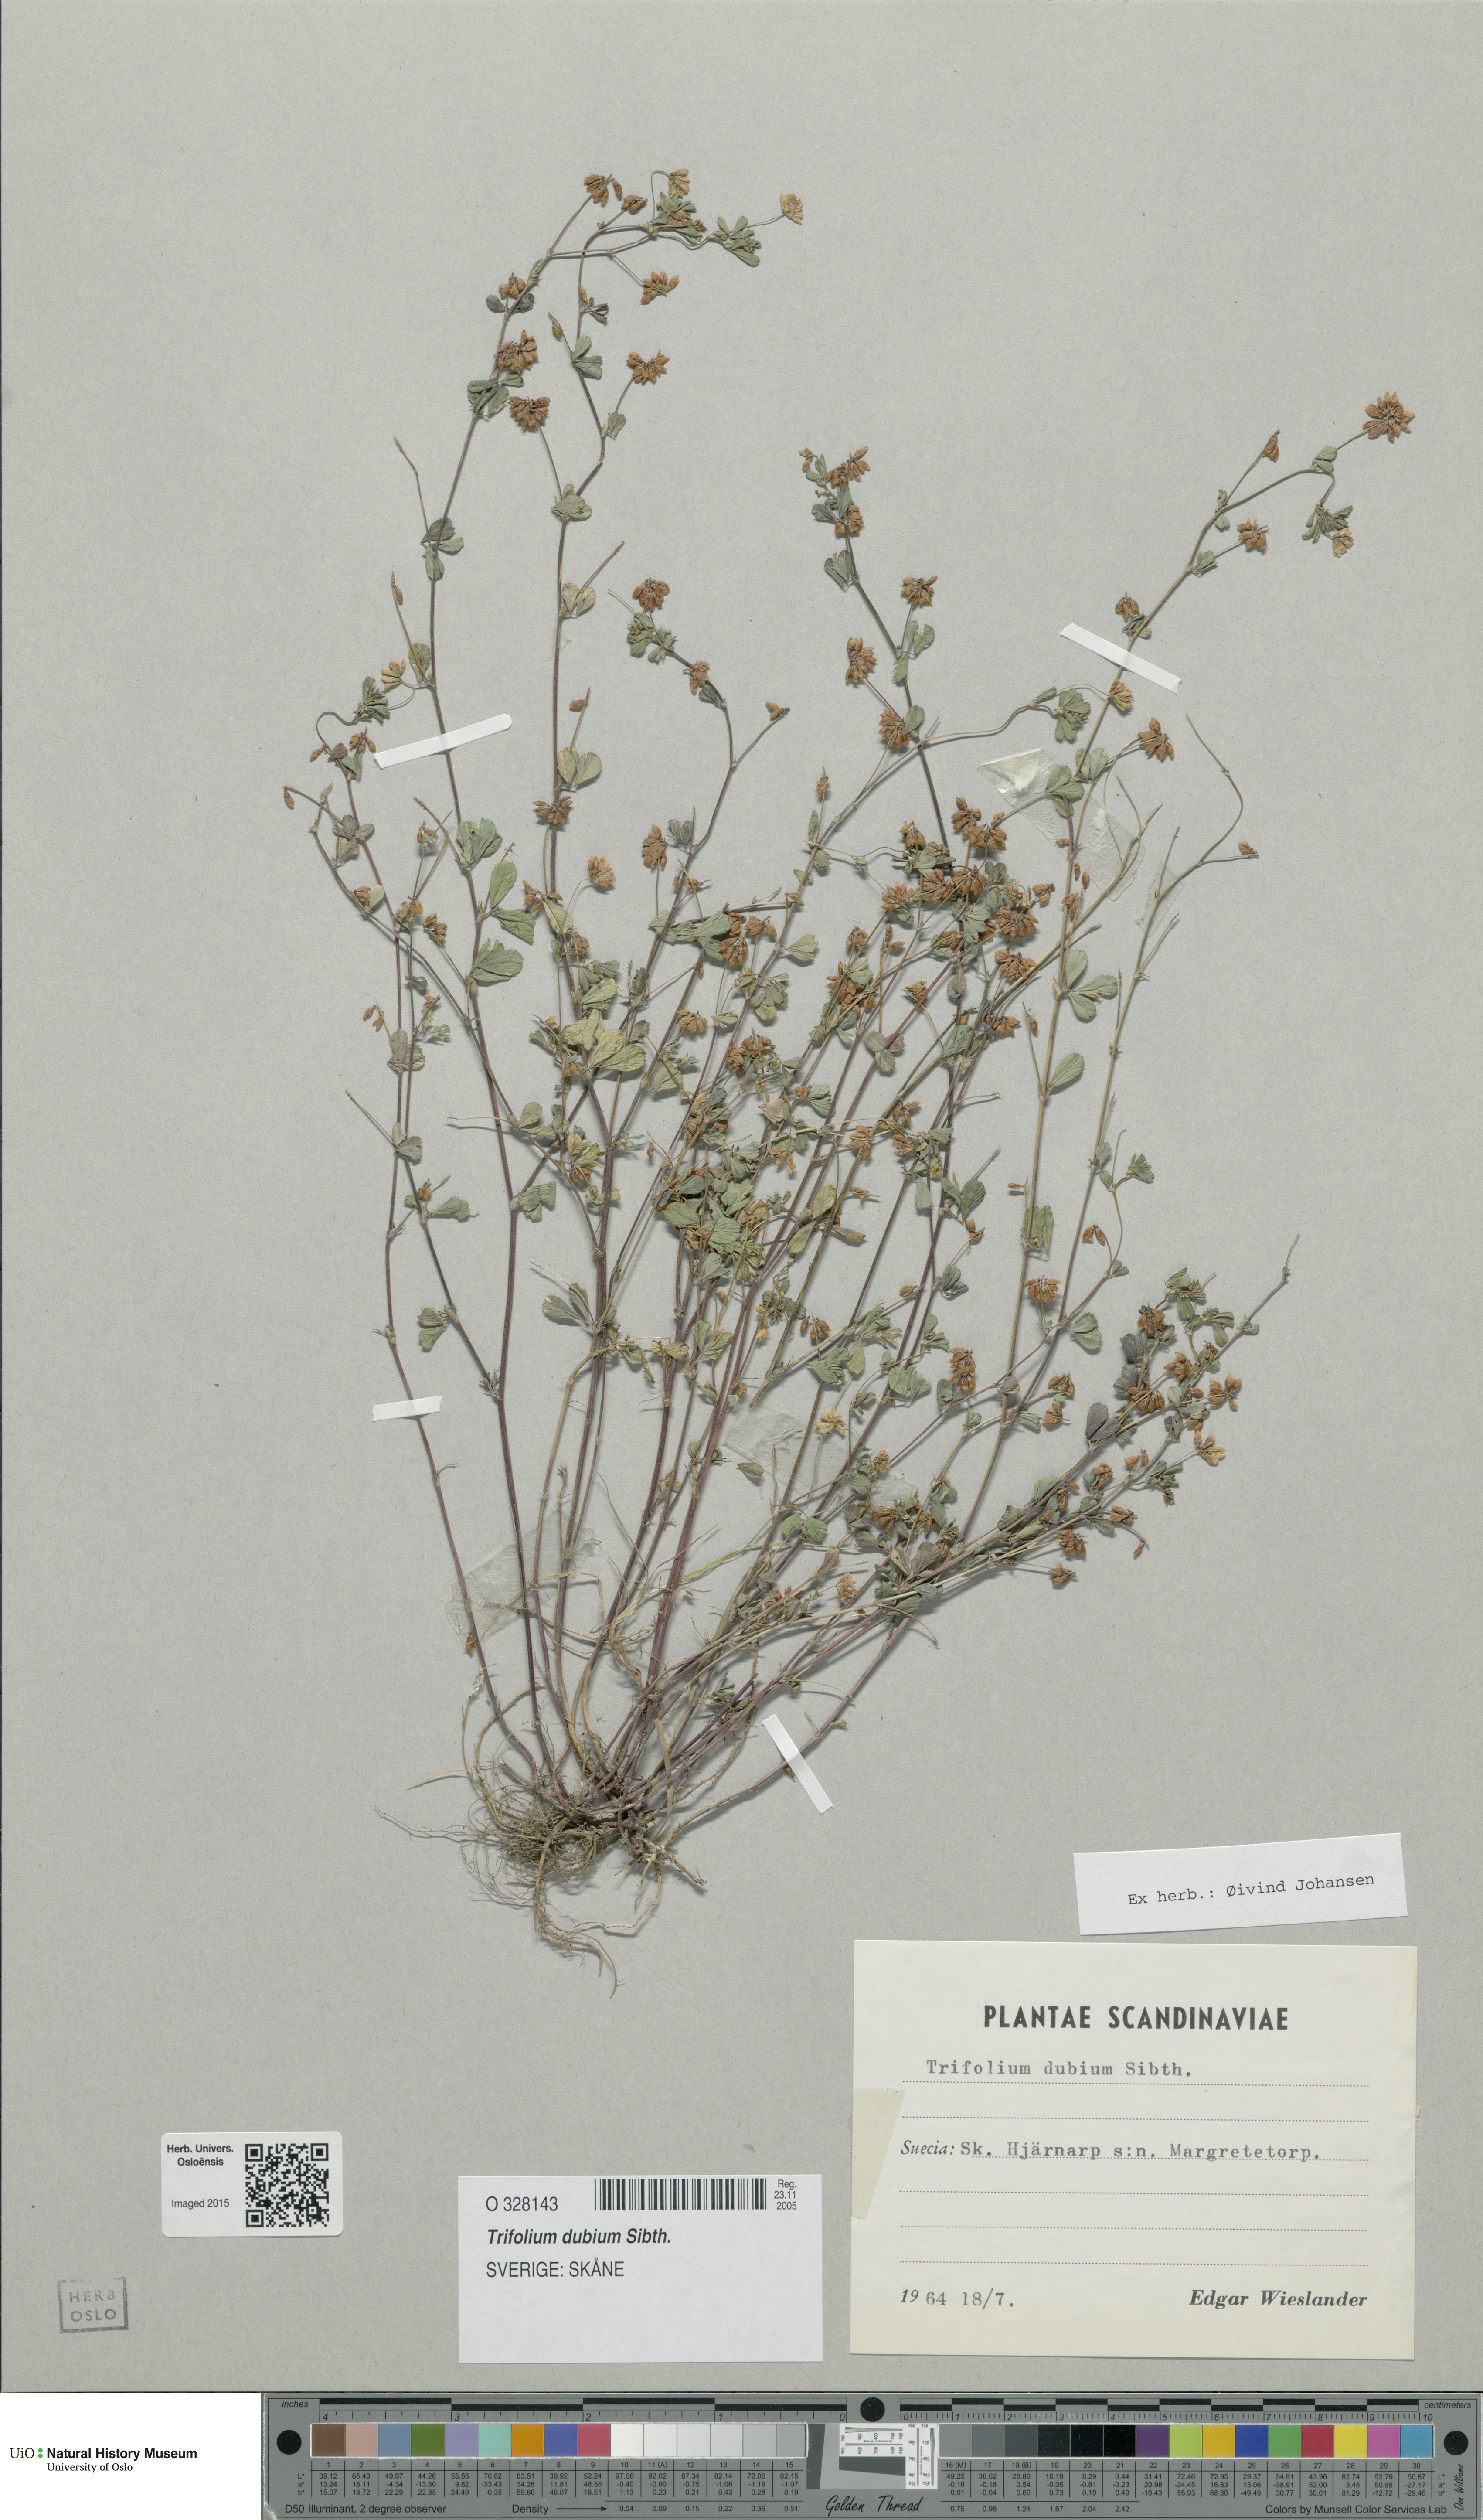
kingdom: Plantae
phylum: Tracheophyta
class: Magnoliopsida
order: Fabales
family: Fabaceae
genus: Trifolium
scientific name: Trifolium dubium
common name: Suckling clover
